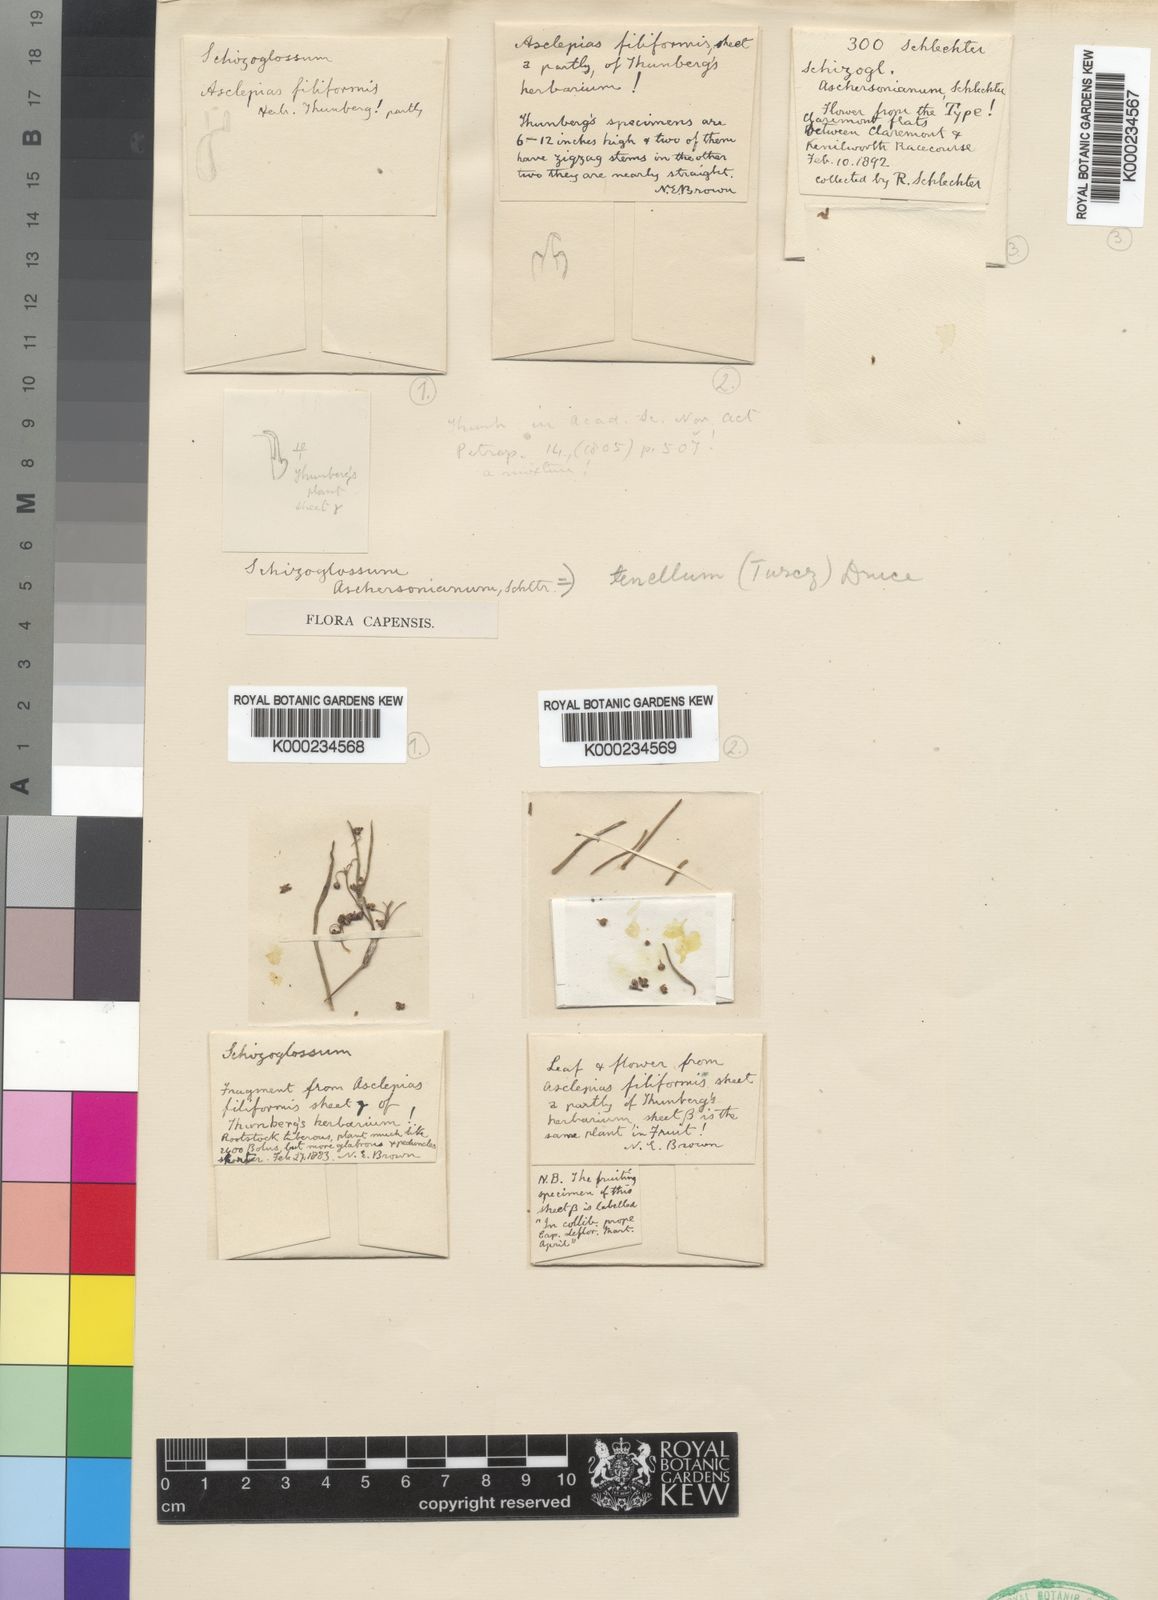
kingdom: Plantae
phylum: Tracheophyta
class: Magnoliopsida
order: Gentianales
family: Apocynaceae
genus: Schizoglossum
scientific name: Schizoglossum aschersonianum
